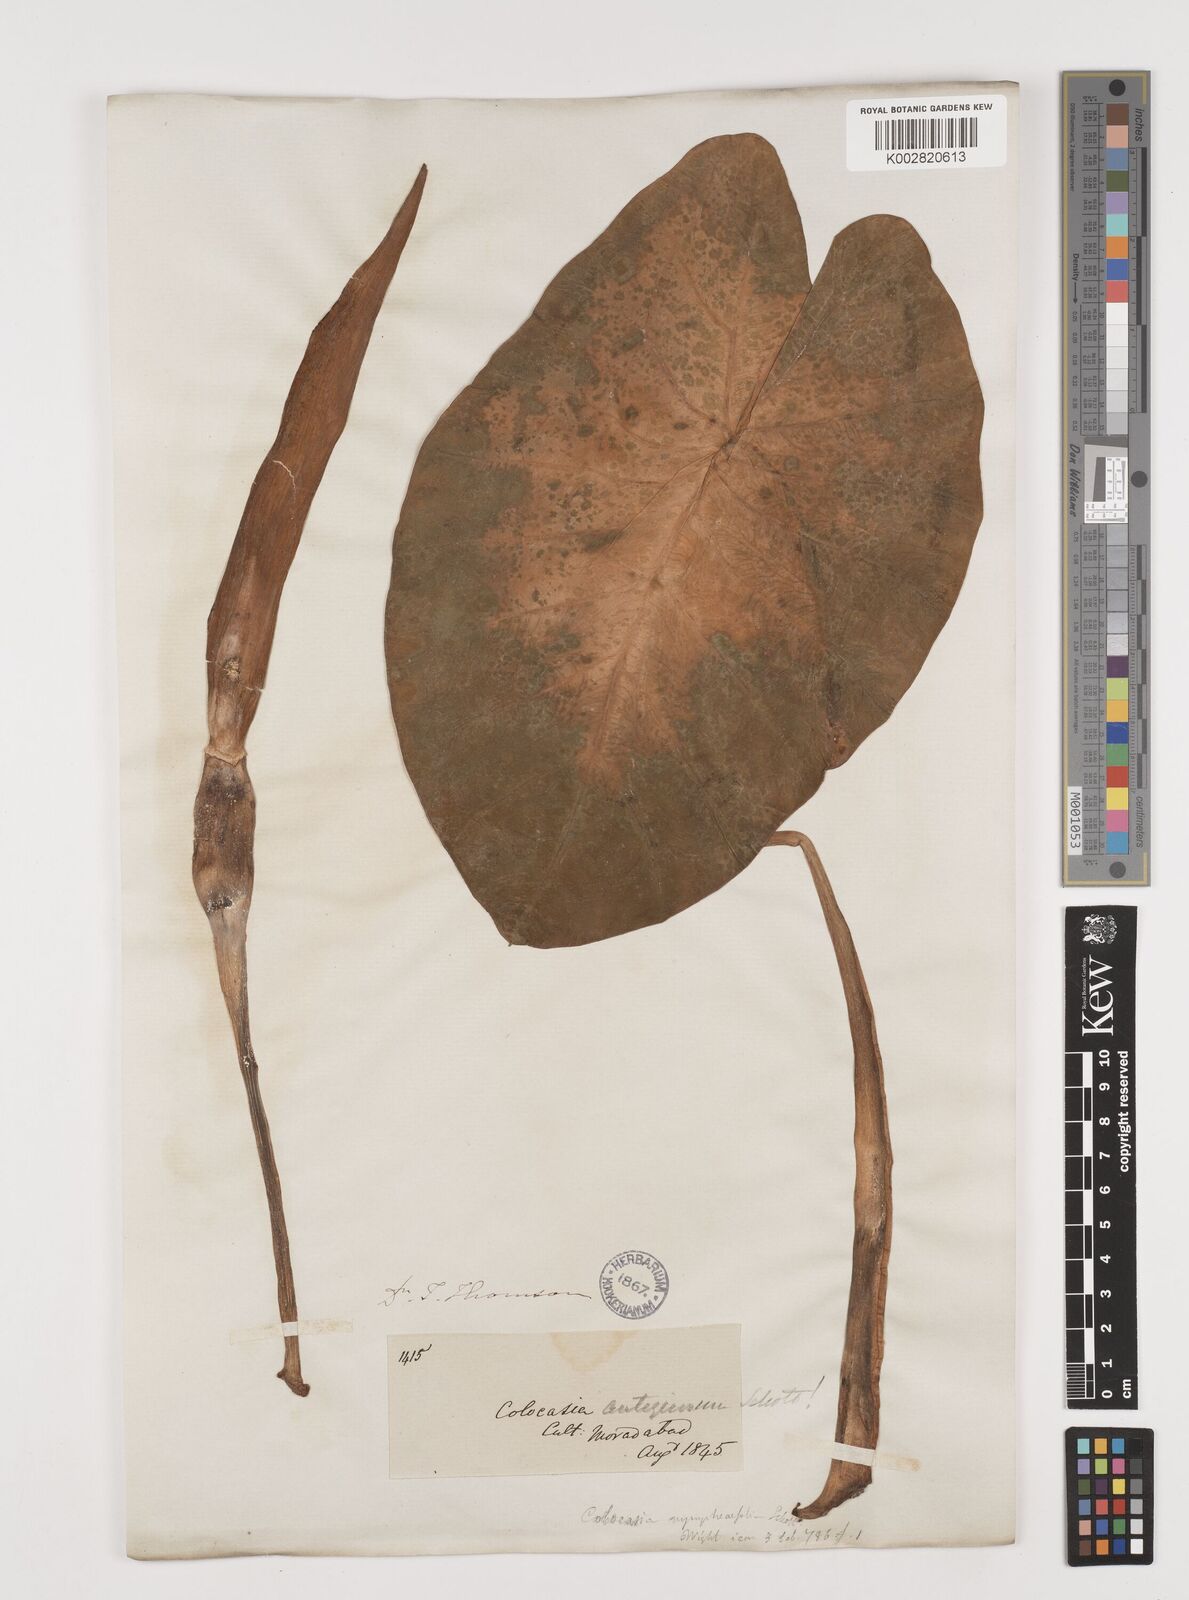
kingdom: Plantae
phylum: Tracheophyta
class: Liliopsida
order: Alismatales
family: Araceae
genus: Colocasia
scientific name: Colocasia esculenta
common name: Taro
